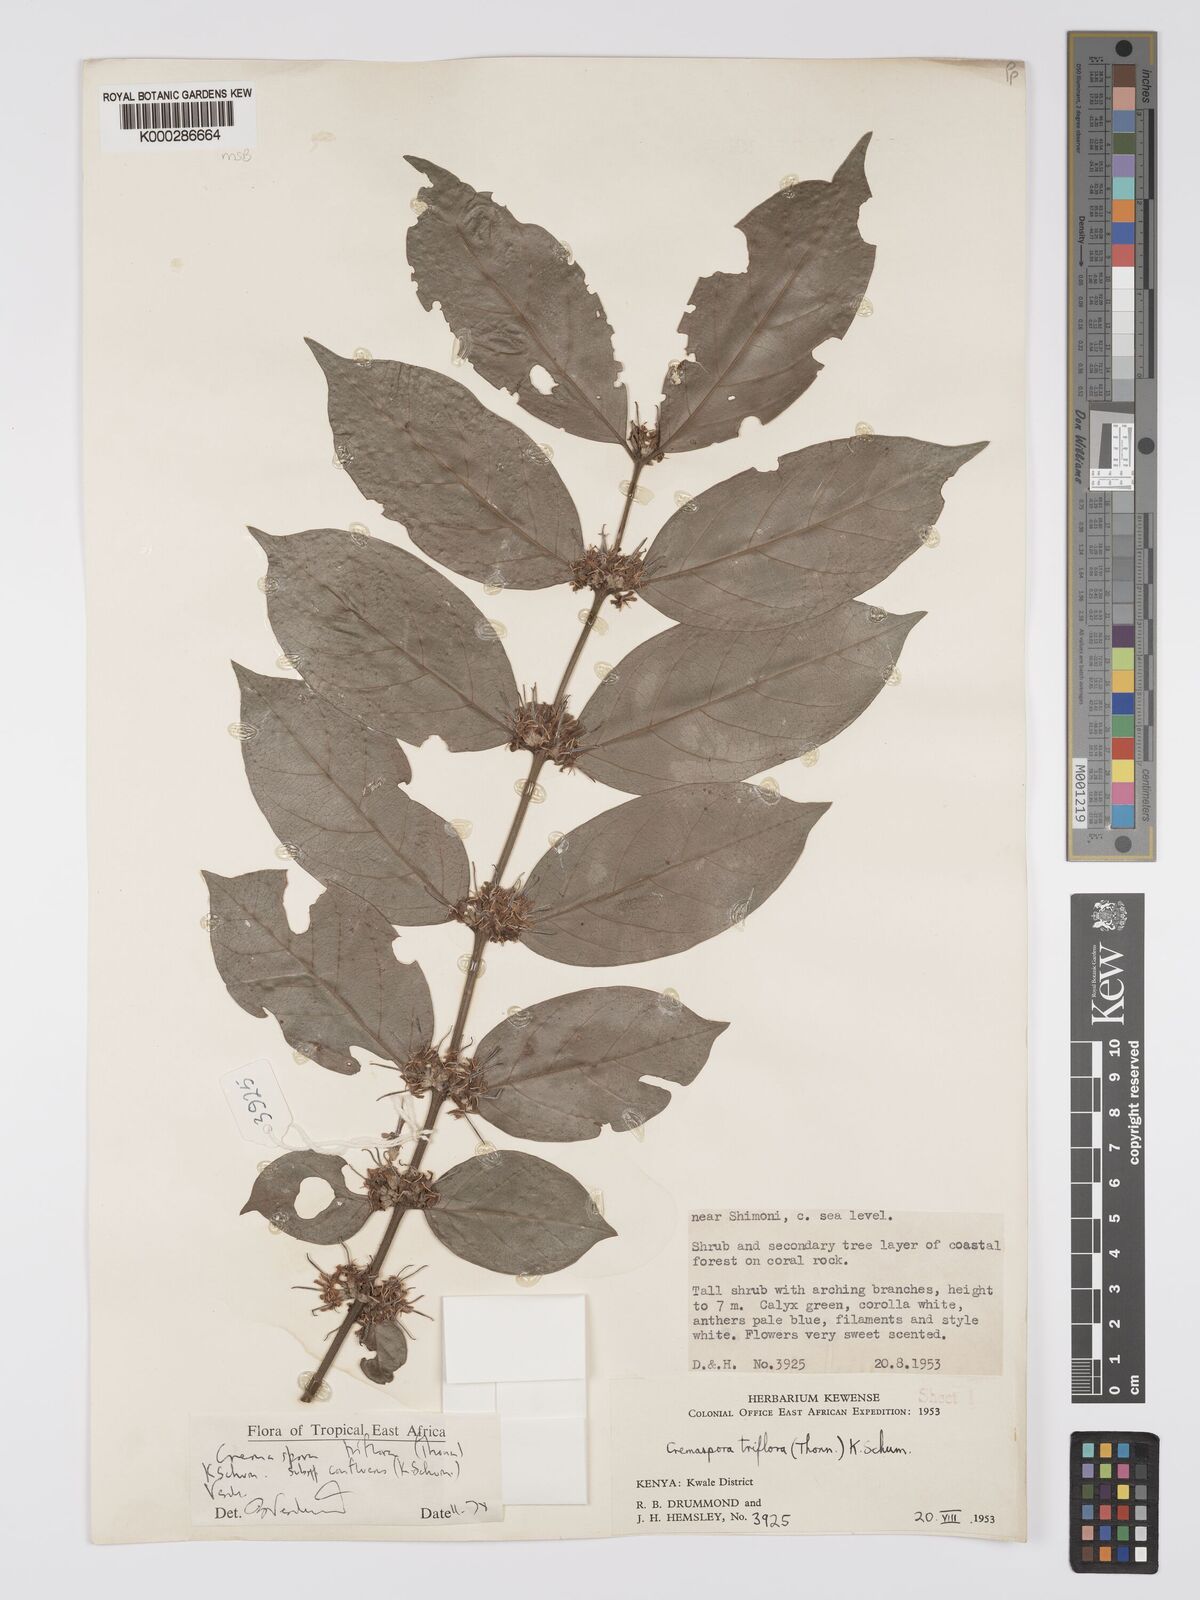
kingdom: Plantae
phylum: Tracheophyta
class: Magnoliopsida
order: Gentianales
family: Rubiaceae
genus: Cremaspora
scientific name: Cremaspora triflora
